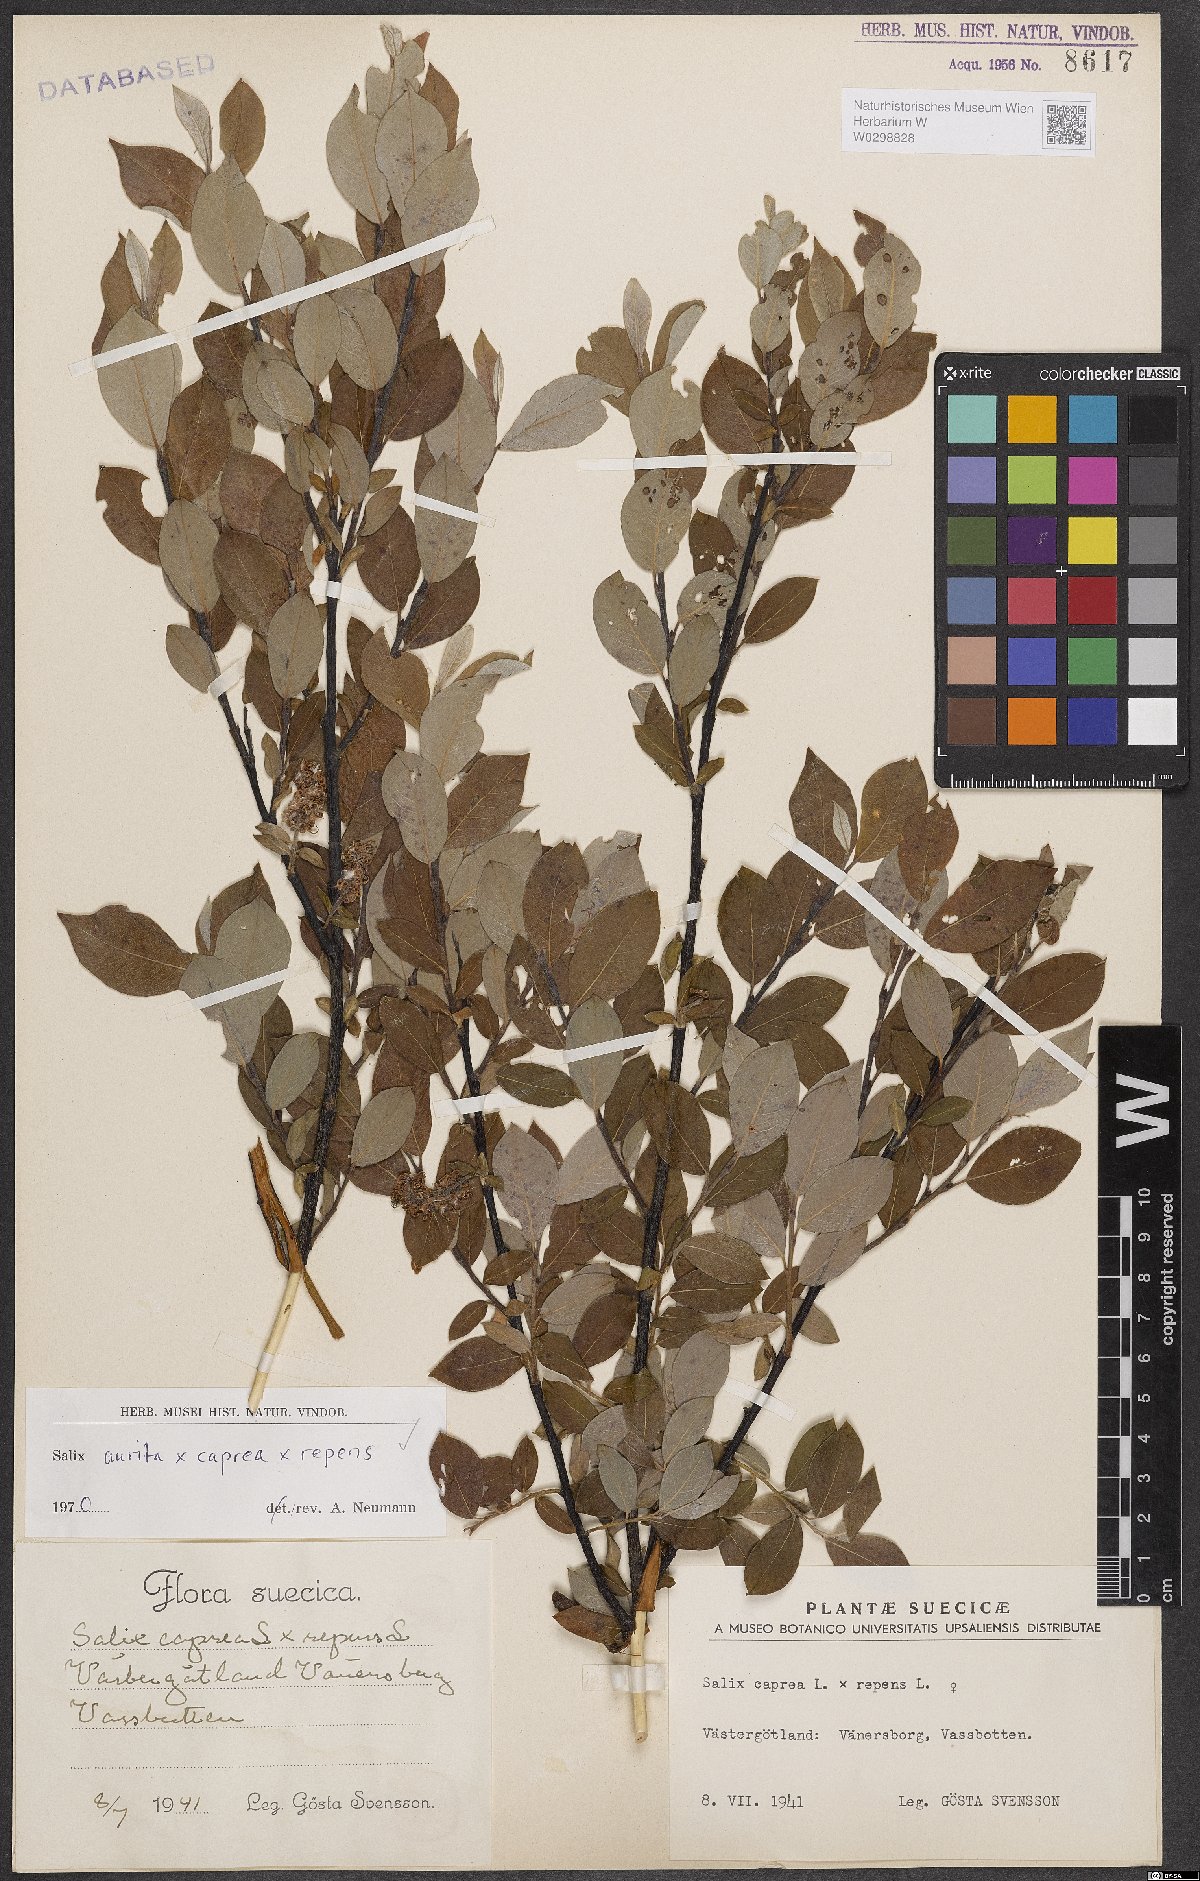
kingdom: Plantae
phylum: Tracheophyta
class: Magnoliopsida
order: Malpighiales
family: Salicaceae
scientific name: Salicaceae
